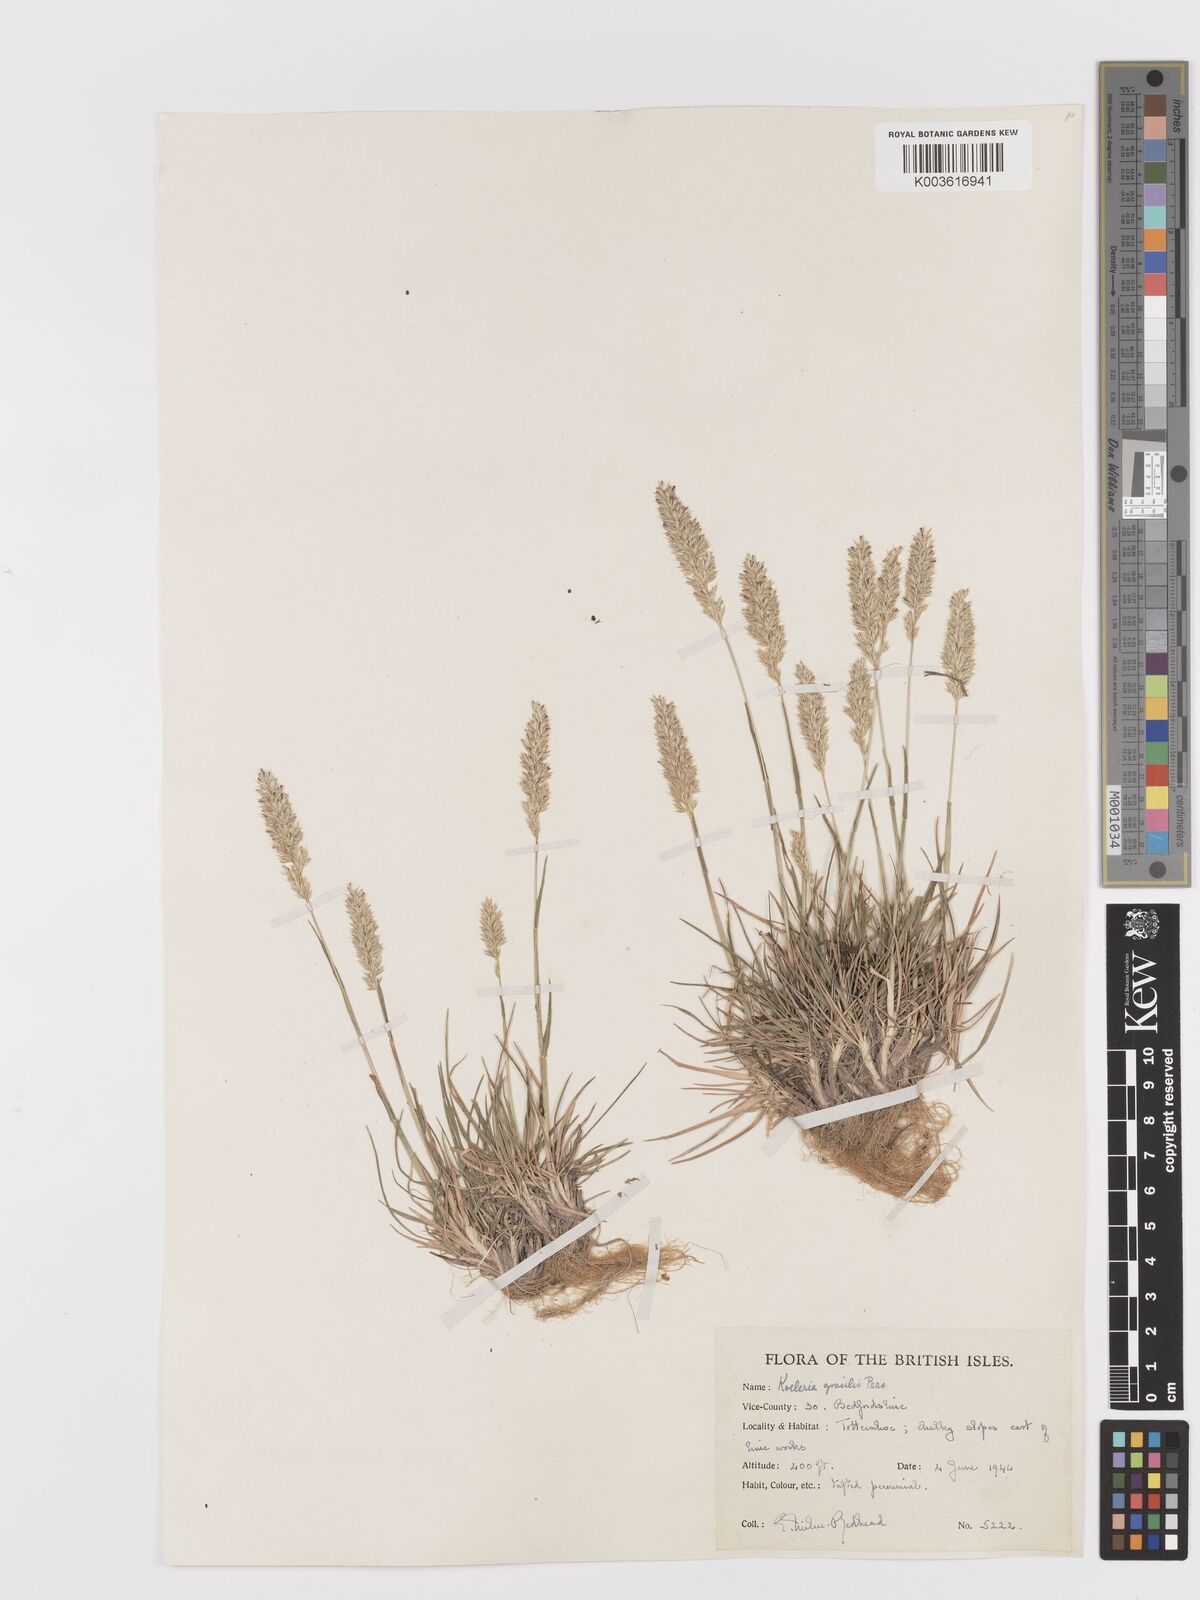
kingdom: Plantae
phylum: Tracheophyta
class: Liliopsida
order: Poales
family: Poaceae
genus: Koeleria
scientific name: Koeleria macrantha
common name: Crested hair-grass
